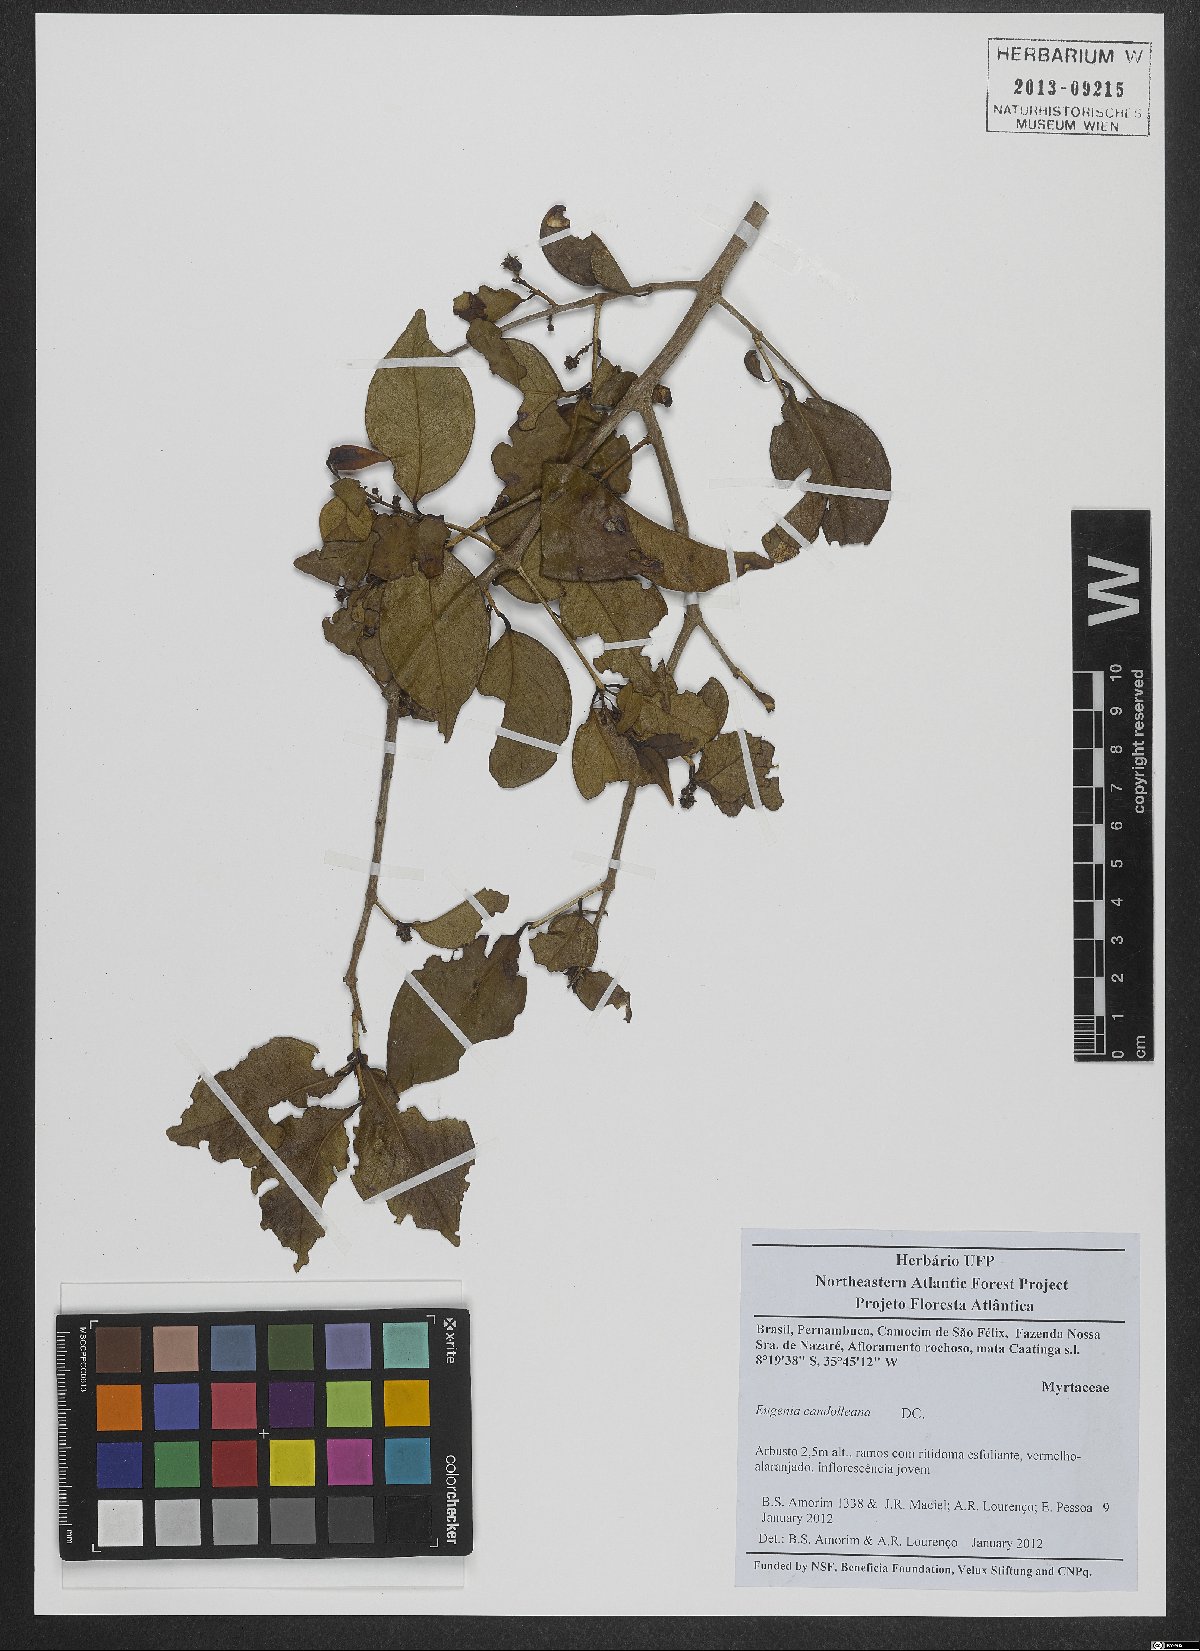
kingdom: Plantae
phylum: Tracheophyta
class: Magnoliopsida
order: Myrtales
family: Myrtaceae
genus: Eugenia
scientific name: Eugenia candolleana
